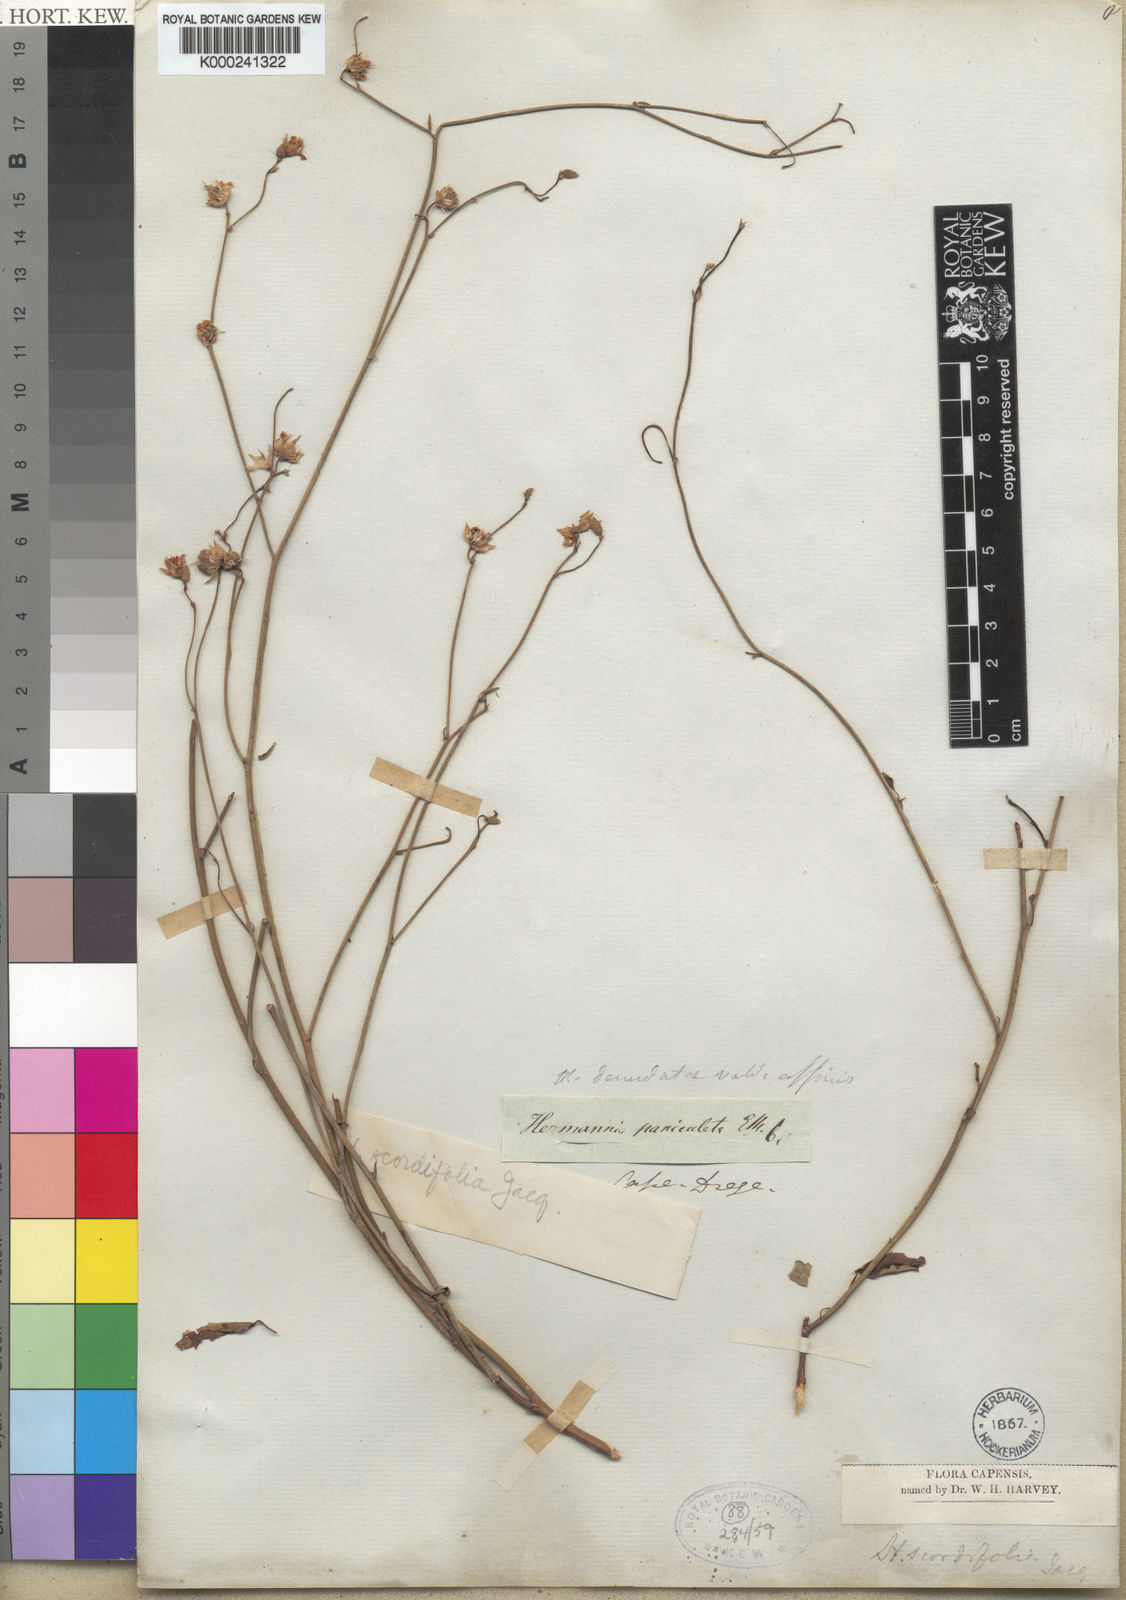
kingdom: Plantae
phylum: Tracheophyta
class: Magnoliopsida
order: Malvales
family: Malvaceae
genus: Hermannia
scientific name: Hermannia scordifolia
